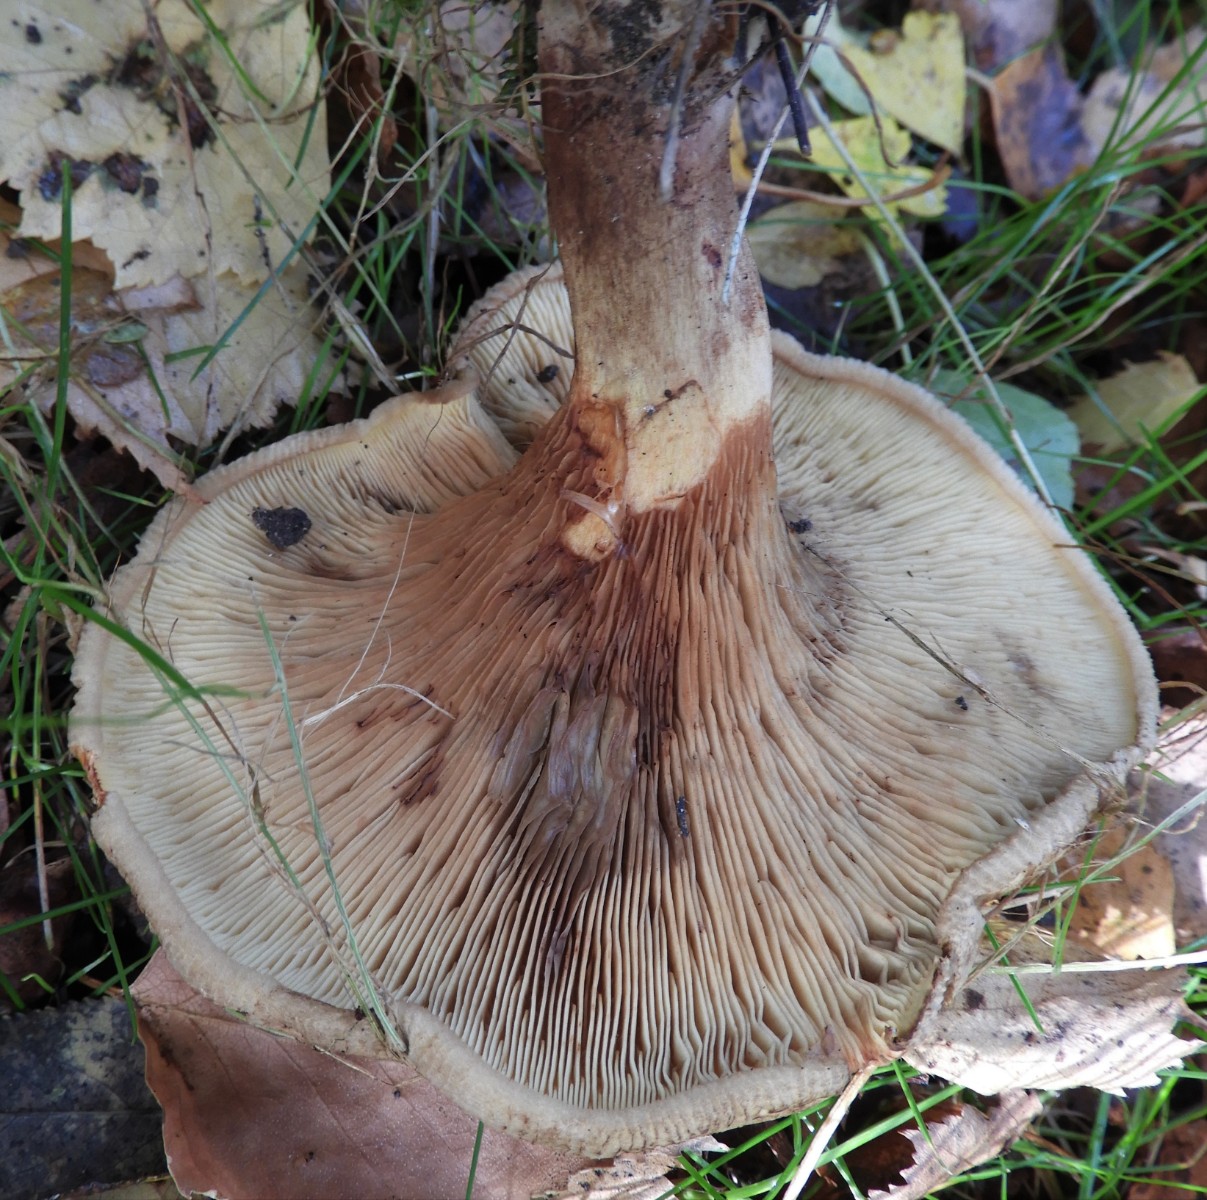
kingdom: Fungi
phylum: Basidiomycota
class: Agaricomycetes
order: Boletales
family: Paxillaceae
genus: Paxillus
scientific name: Paxillus involutus
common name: almindelig netbladhat
